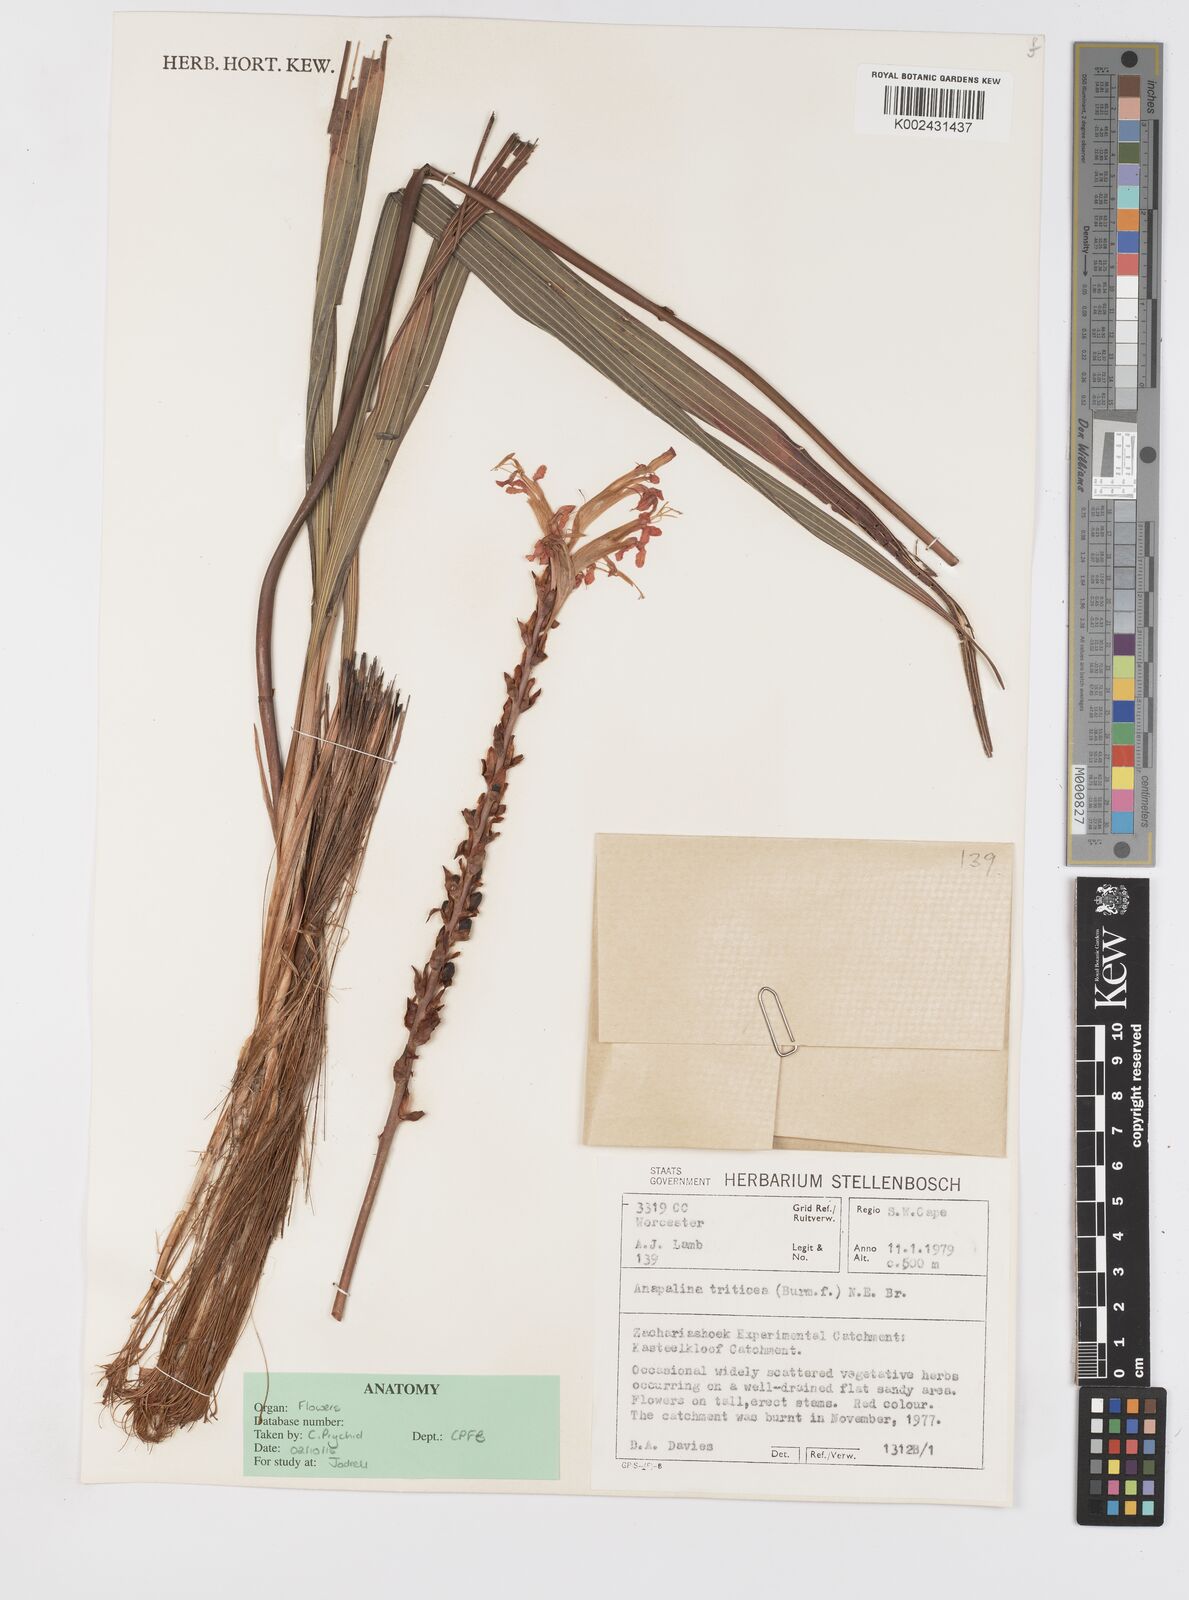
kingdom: Plantae
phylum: Tracheophyta
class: Liliopsida
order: Asparagales
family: Iridaceae
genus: Tritoniopsis
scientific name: Tritoniopsis triticea
